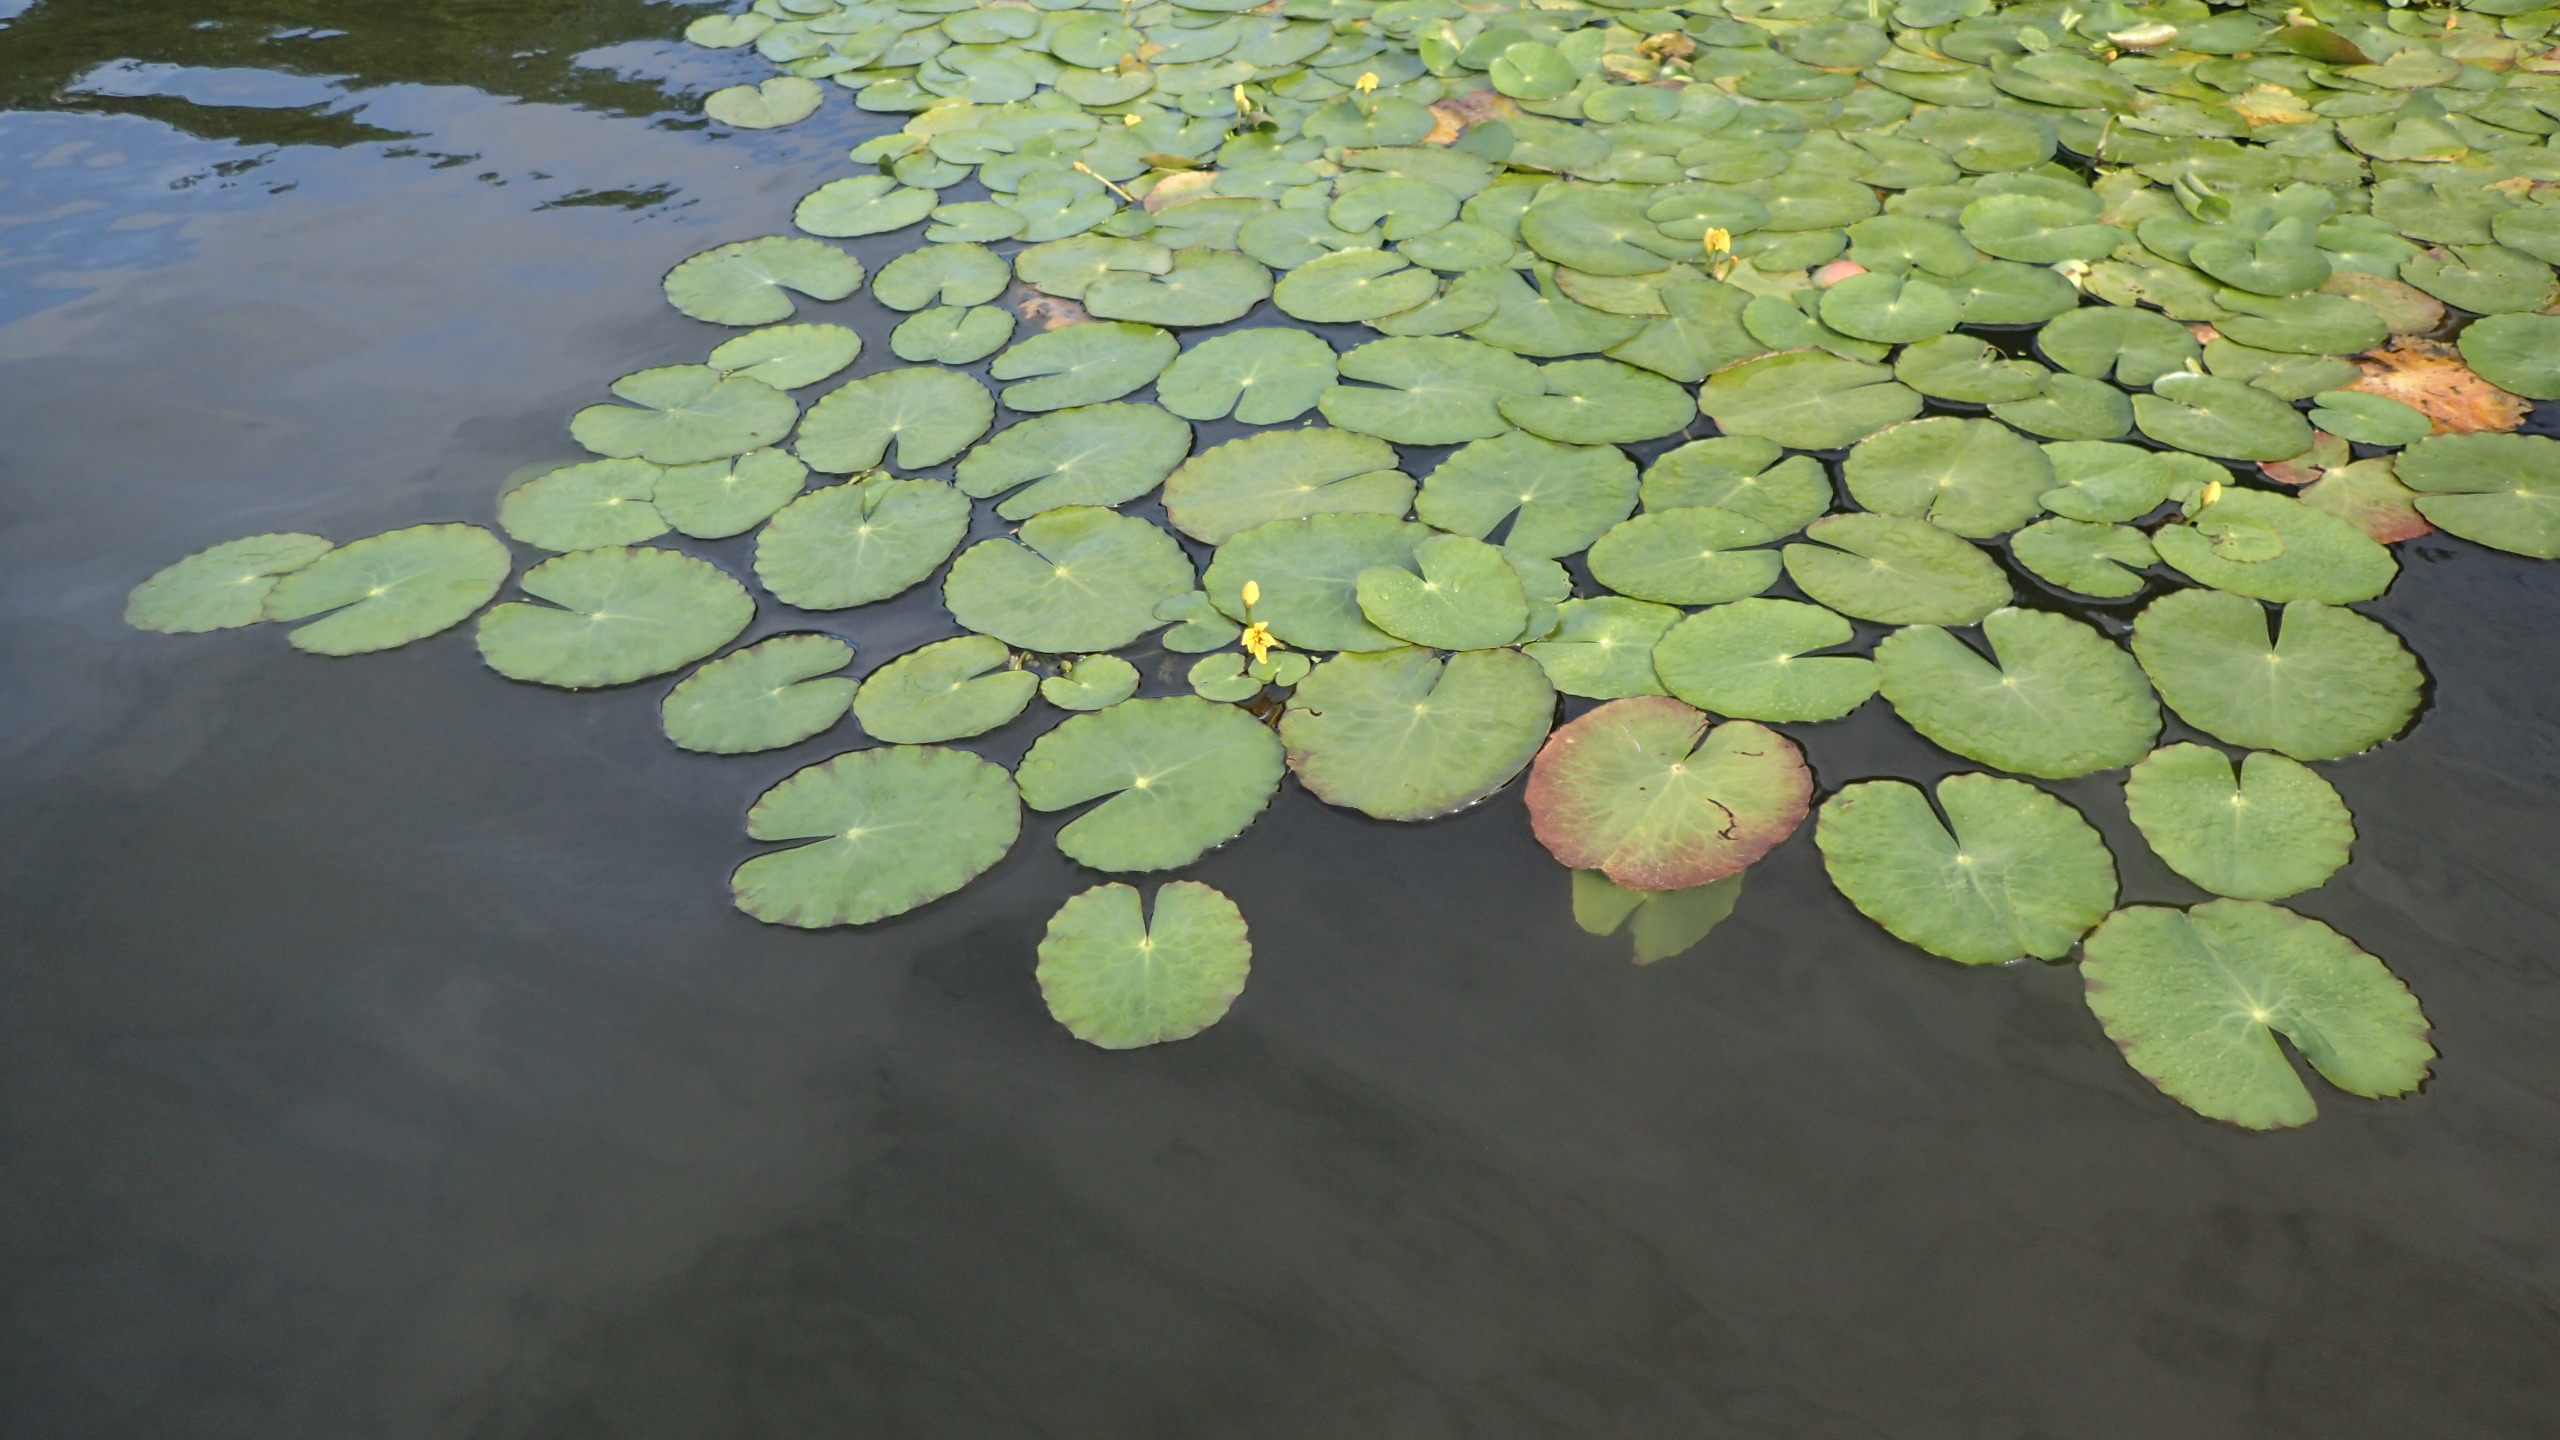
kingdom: Plantae
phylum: Tracheophyta
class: Magnoliopsida
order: Asterales
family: Menyanthaceae
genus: Nymphoides
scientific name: Nymphoides peltata
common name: Søblad
